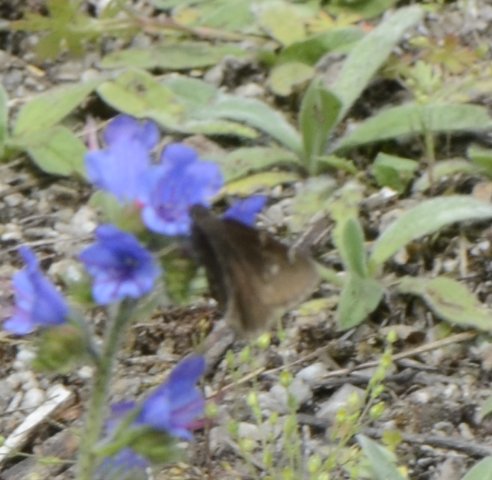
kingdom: Animalia
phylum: Arthropoda
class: Insecta
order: Lepidoptera
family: Hesperiidae
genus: Autochton
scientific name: Autochton
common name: Northern Cloudywing
